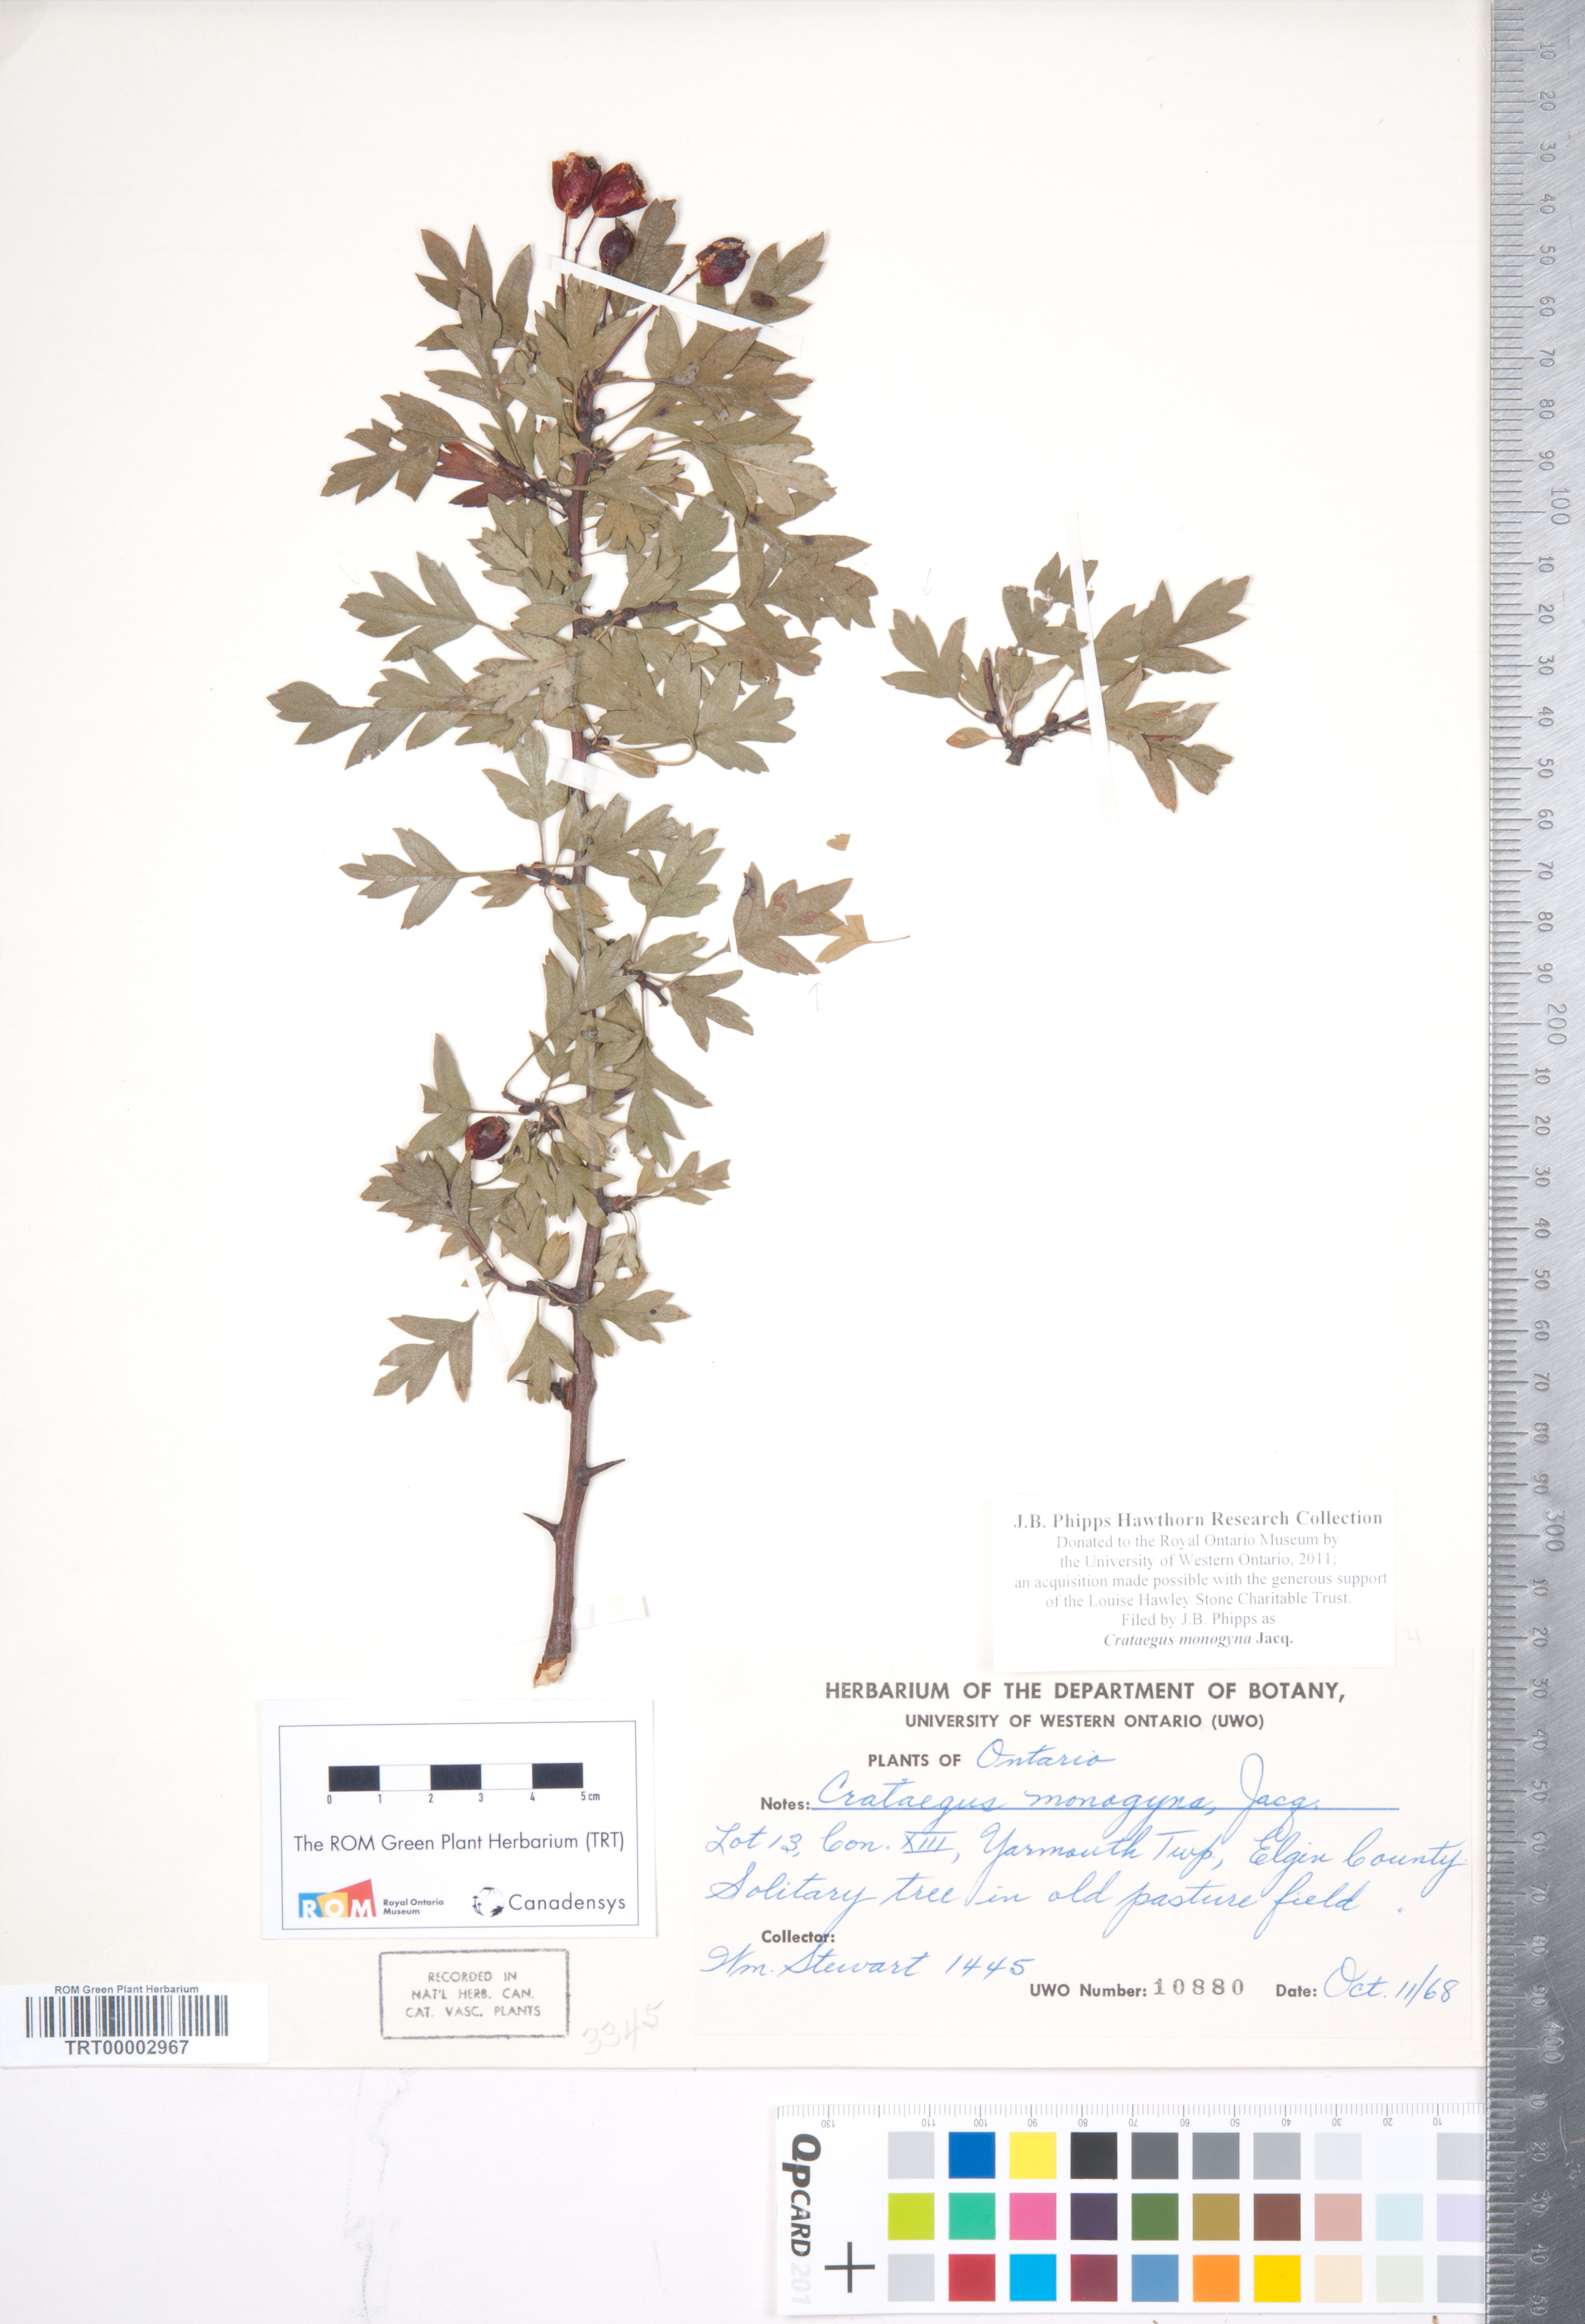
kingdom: Plantae
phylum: Tracheophyta
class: Magnoliopsida
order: Rosales
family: Rosaceae
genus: Crataegus
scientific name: Crataegus monogyna
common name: Hawthorn
